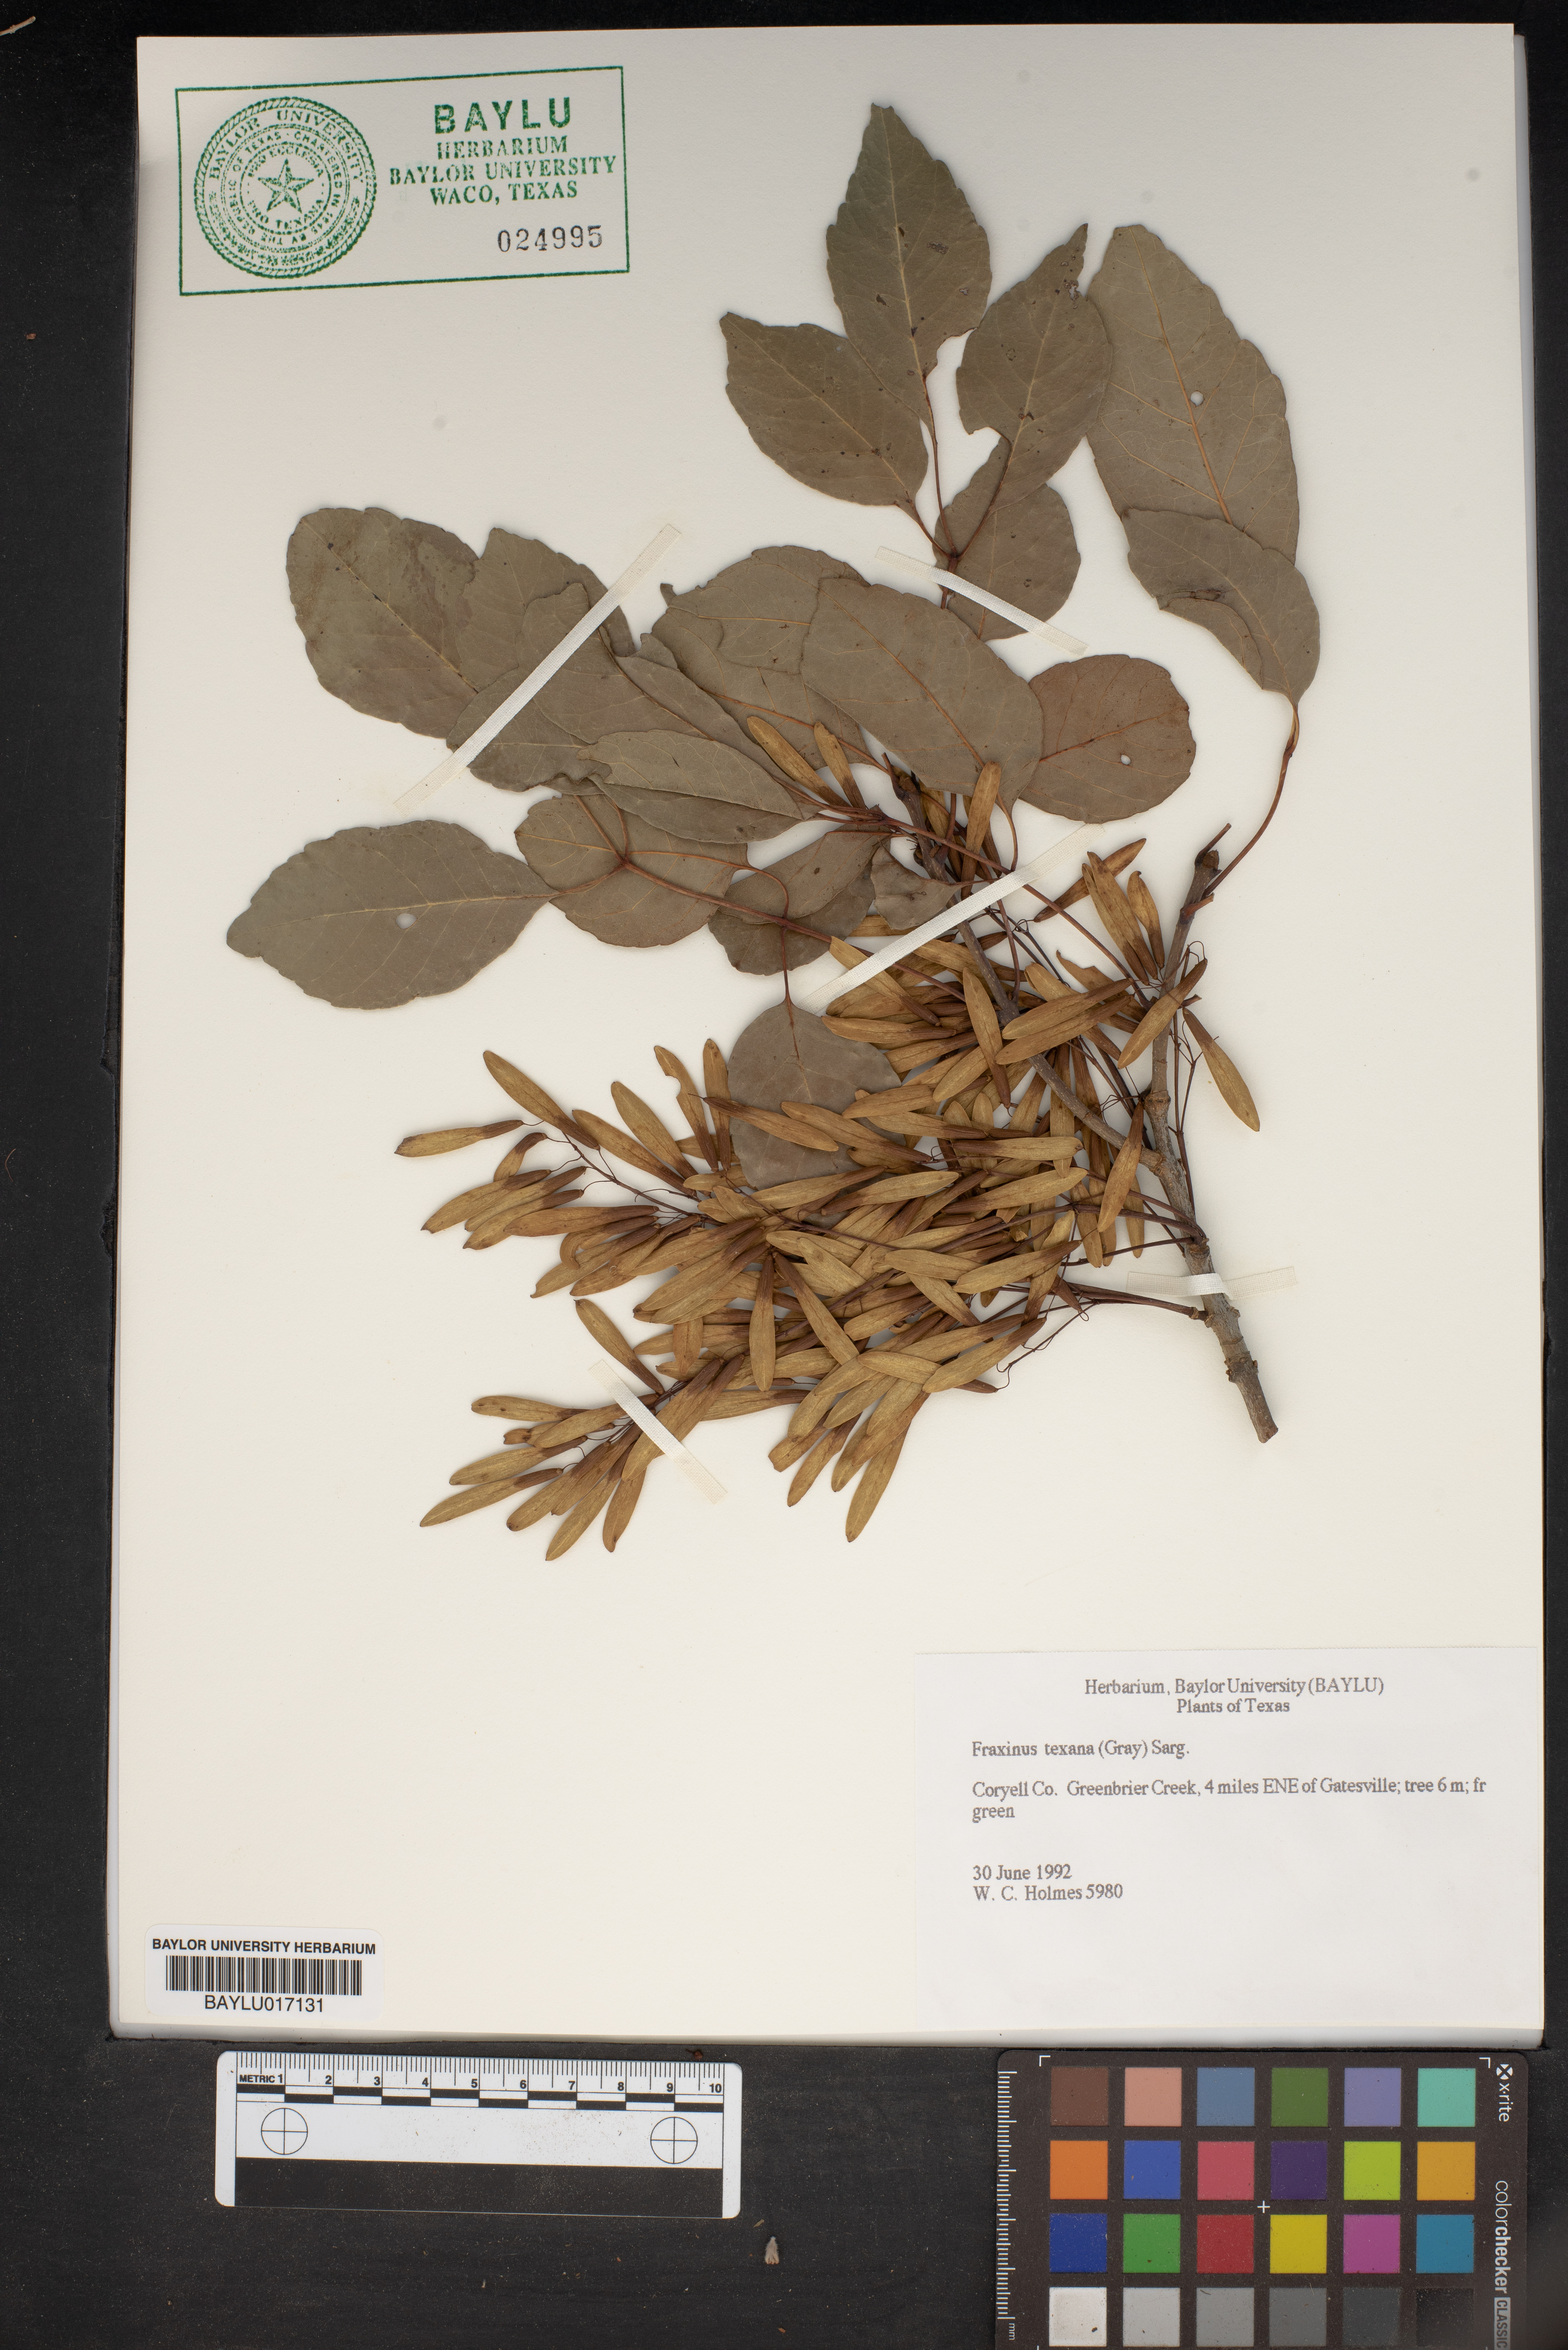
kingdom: Plantae
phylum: Tracheophyta
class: Magnoliopsida
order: Lamiales
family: Oleaceae
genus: Fraxinus
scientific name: Fraxinus albicans
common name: Texas ash
